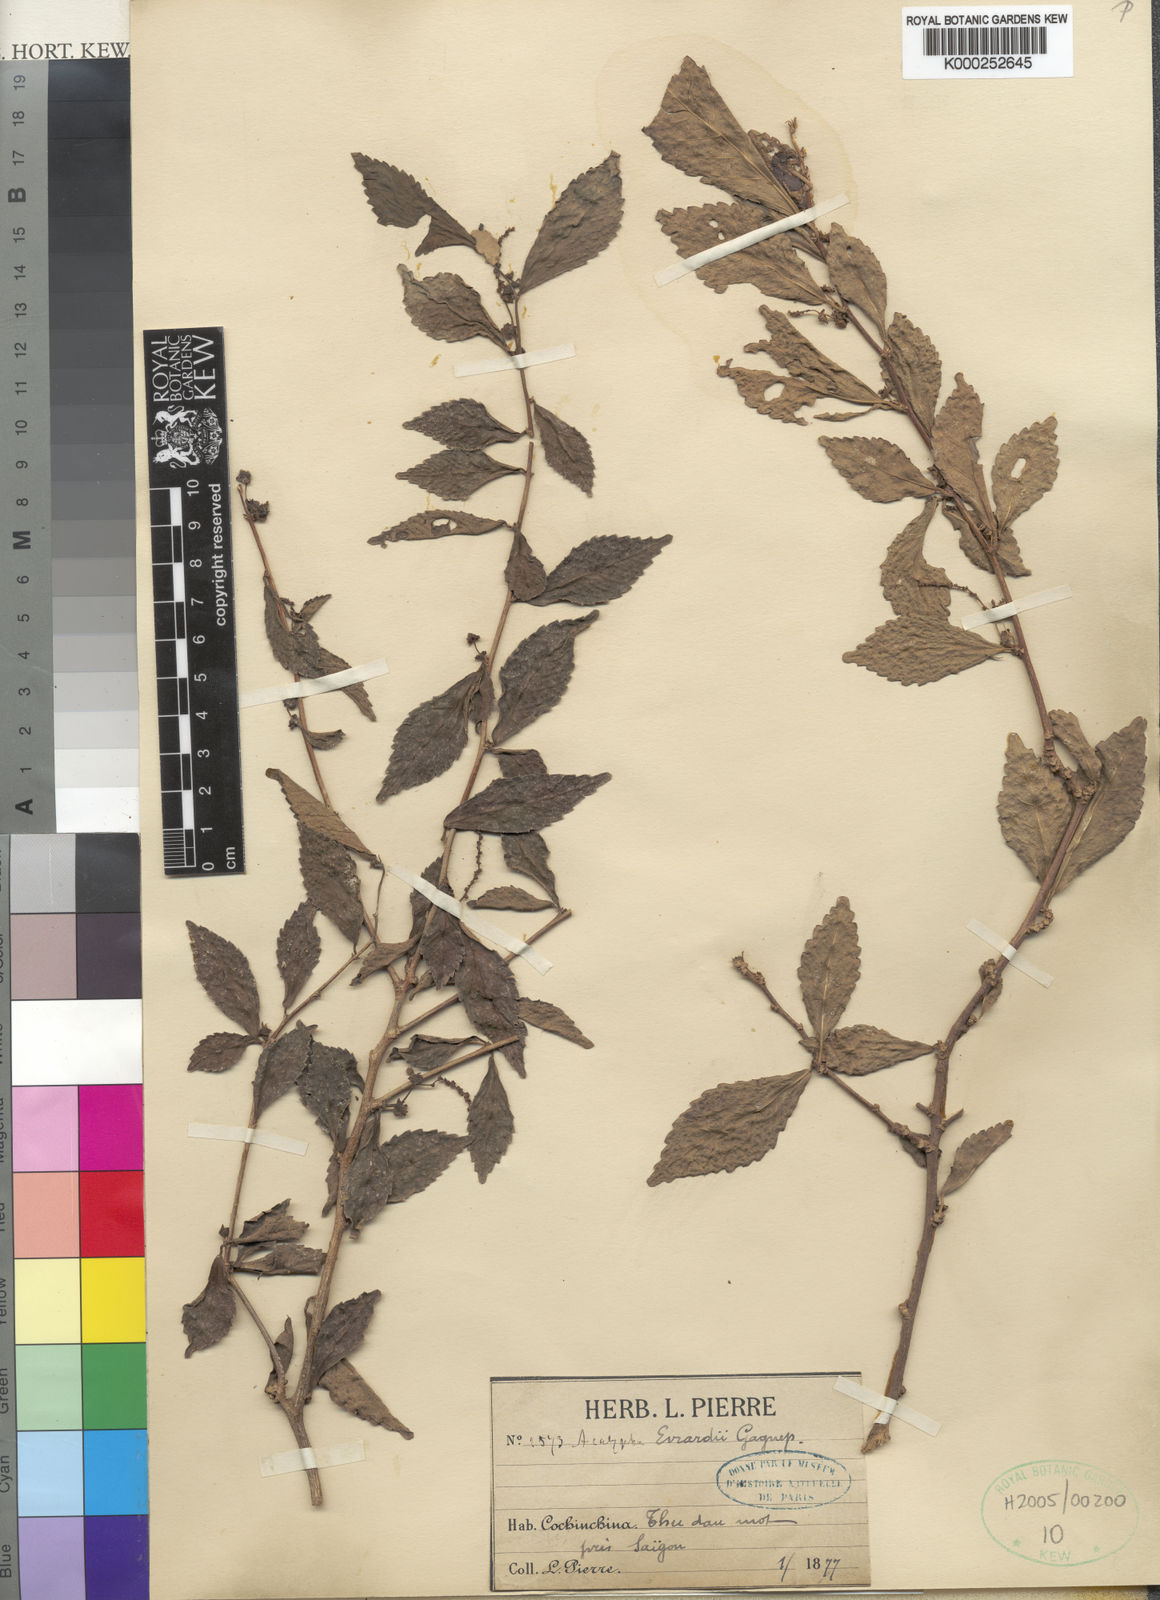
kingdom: Plantae
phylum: Tracheophyta
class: Magnoliopsida
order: Malpighiales
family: Euphorbiaceae
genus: Acalypha
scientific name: Acalypha siamensis
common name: Wild tea
